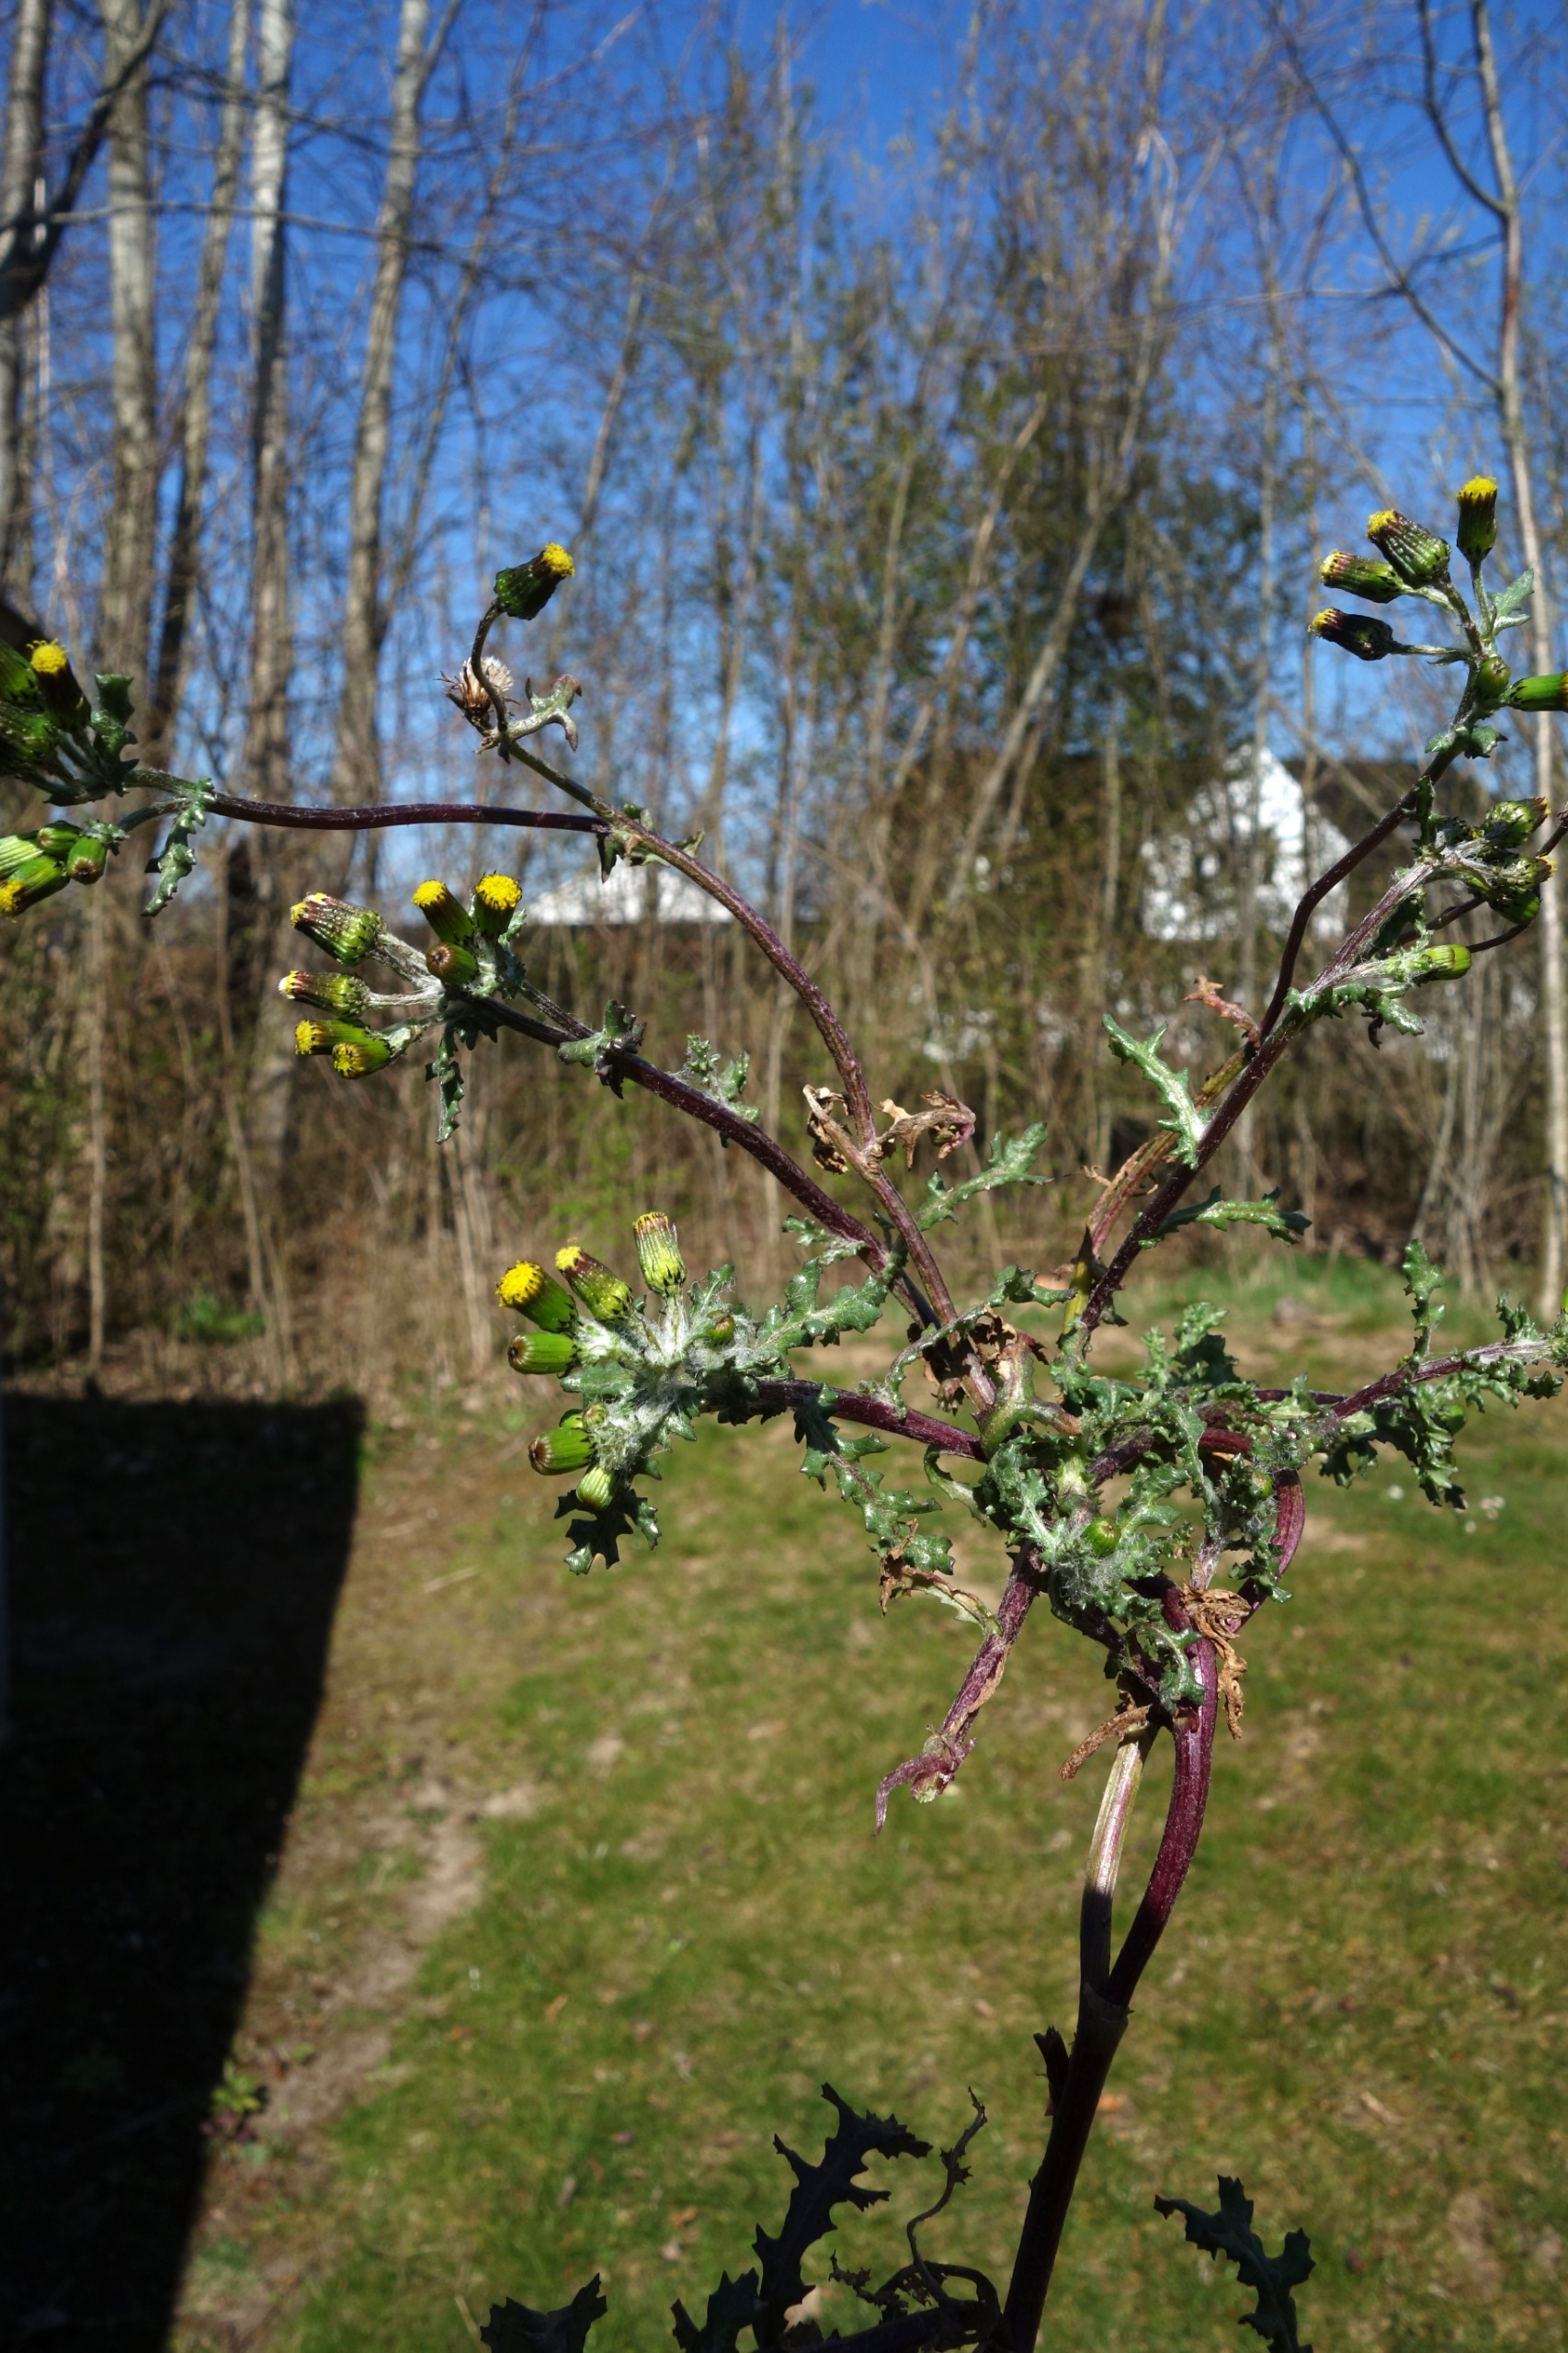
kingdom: Plantae
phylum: Tracheophyta
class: Magnoliopsida
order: Asterales
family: Asteraceae
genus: Senecio
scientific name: Senecio vulgaris
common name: Almindelig brandbæger
